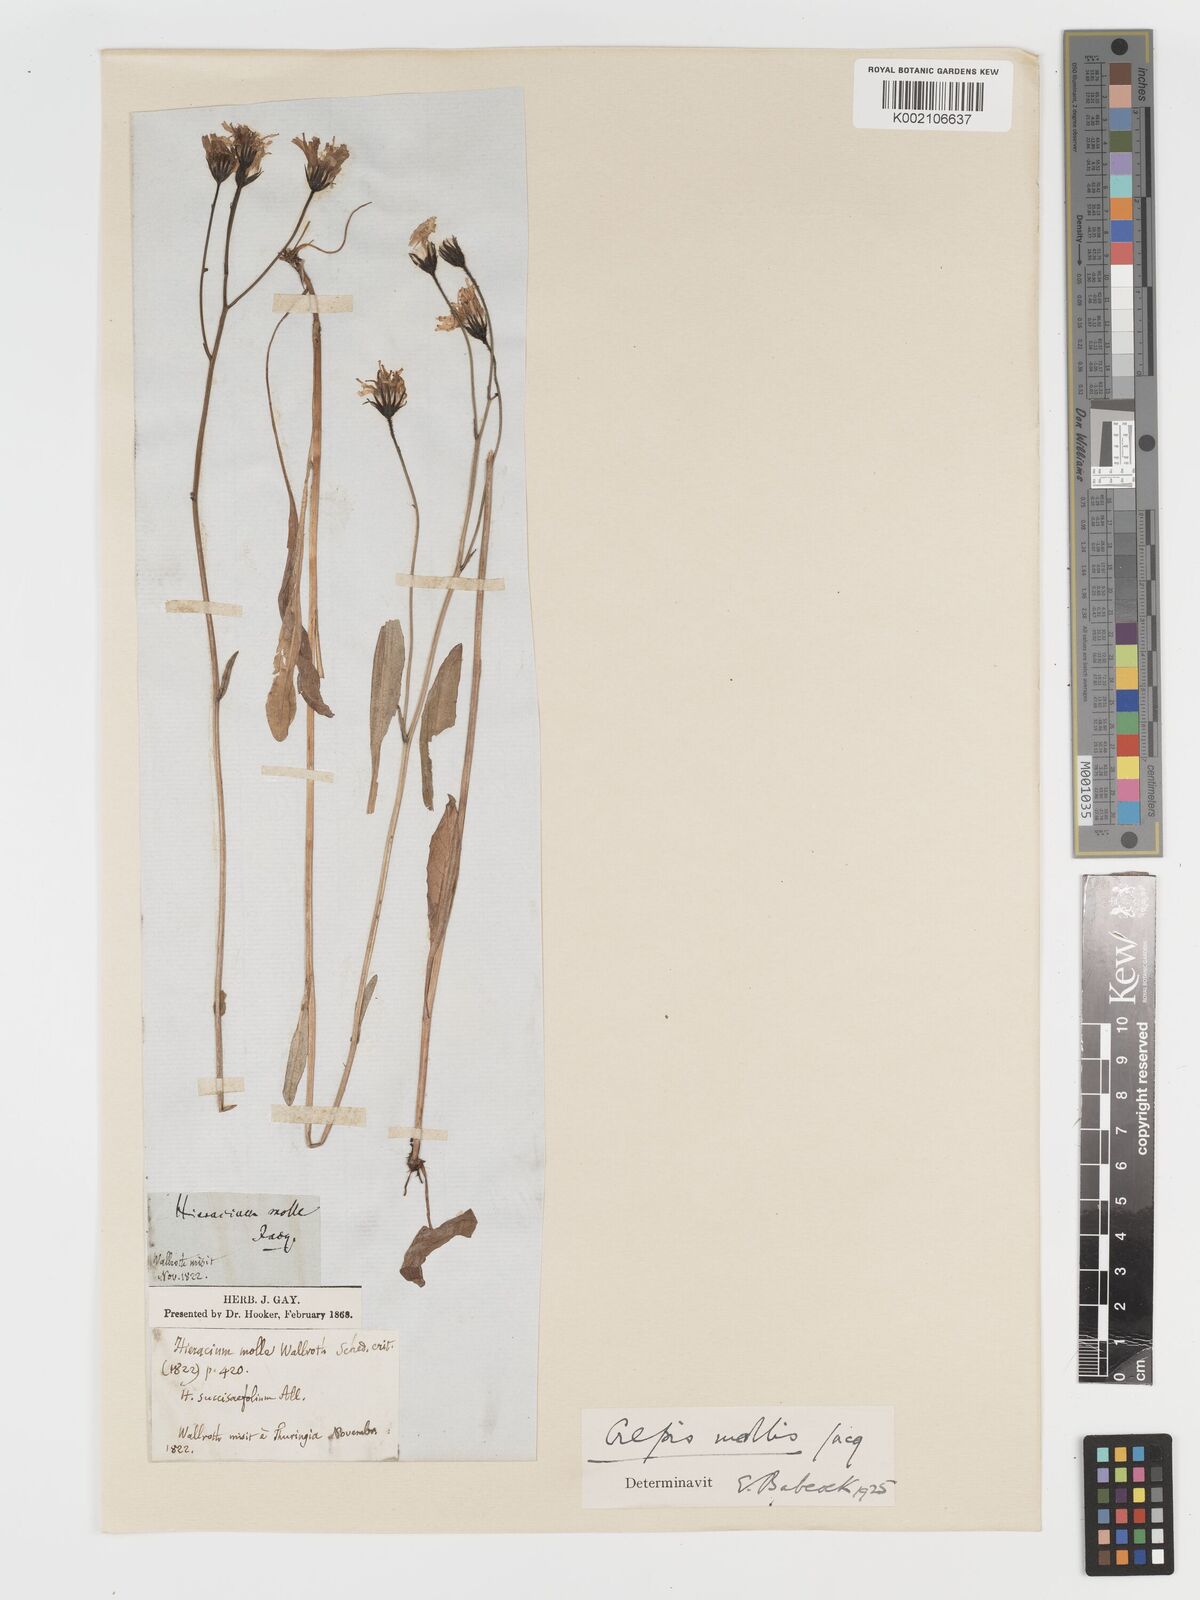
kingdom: Plantae
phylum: Tracheophyta
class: Magnoliopsida
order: Asterales
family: Asteraceae
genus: Crepis
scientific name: Crepis mollis
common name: Northern hawk's-beard
